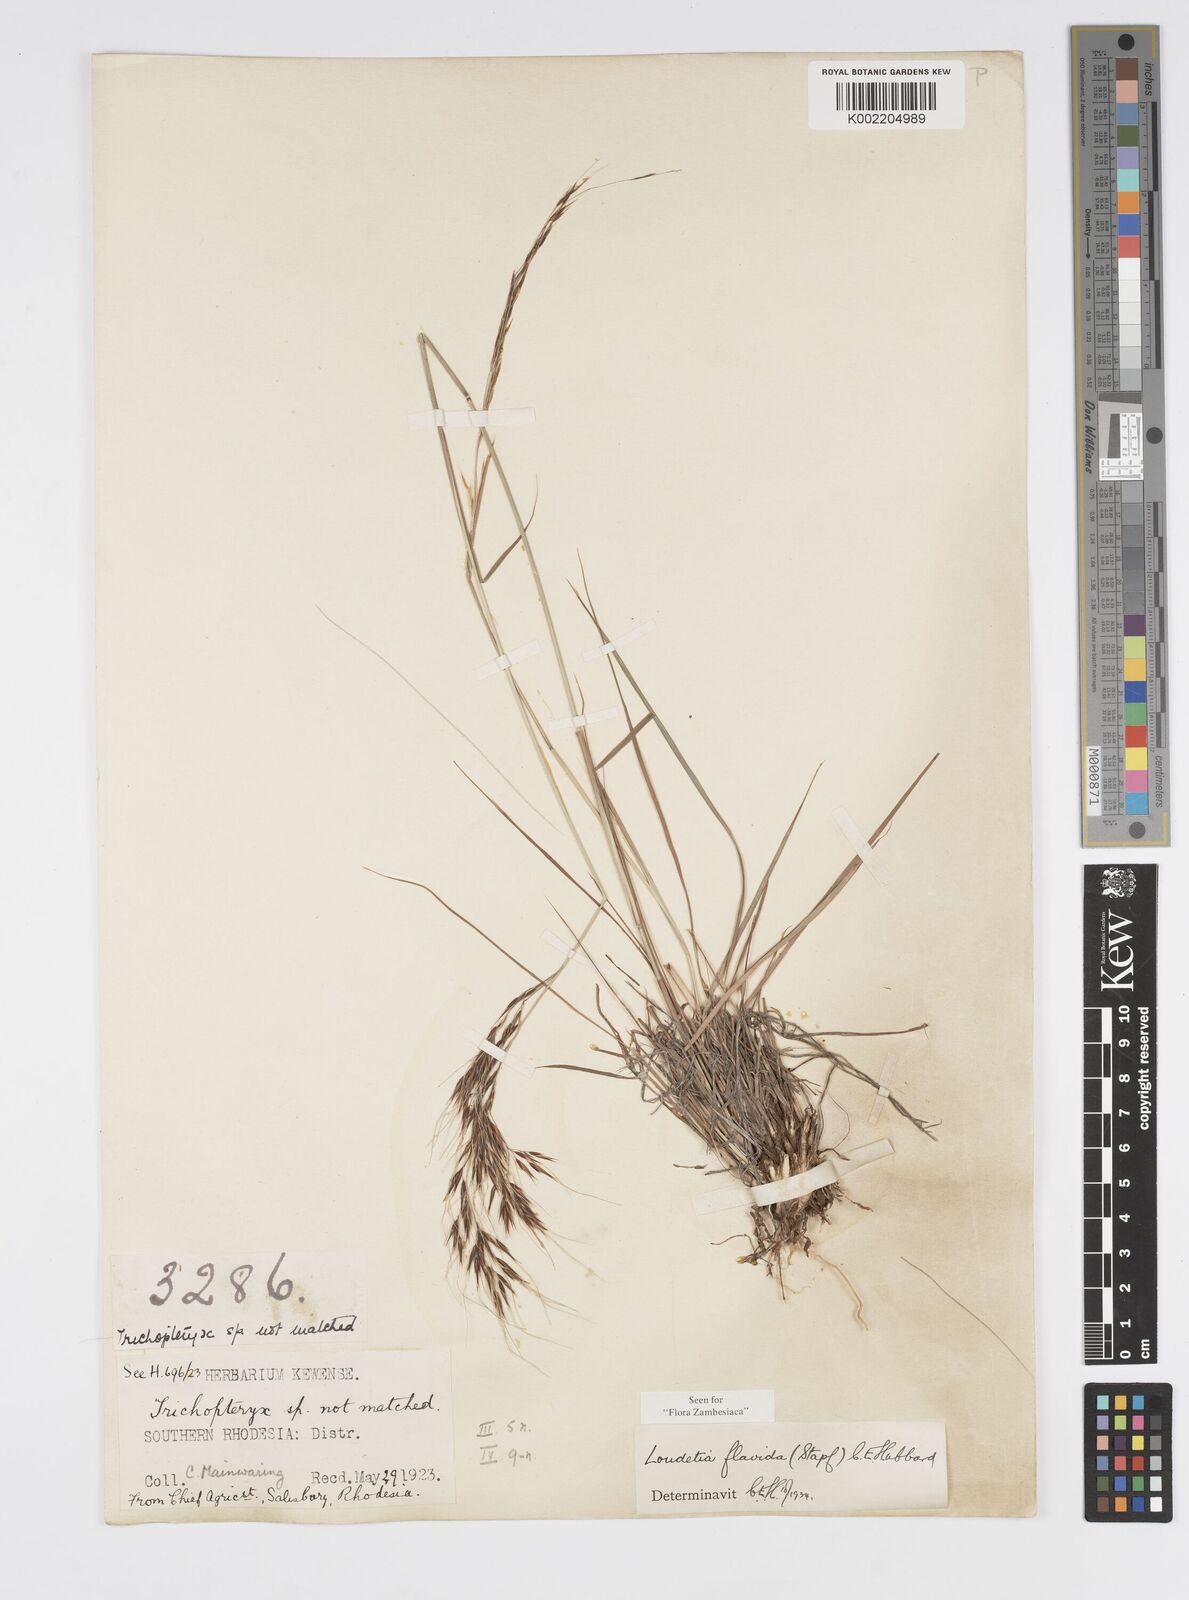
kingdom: Plantae
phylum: Tracheophyta
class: Liliopsida
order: Poales
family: Poaceae
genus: Loudetia
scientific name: Loudetia flavida
